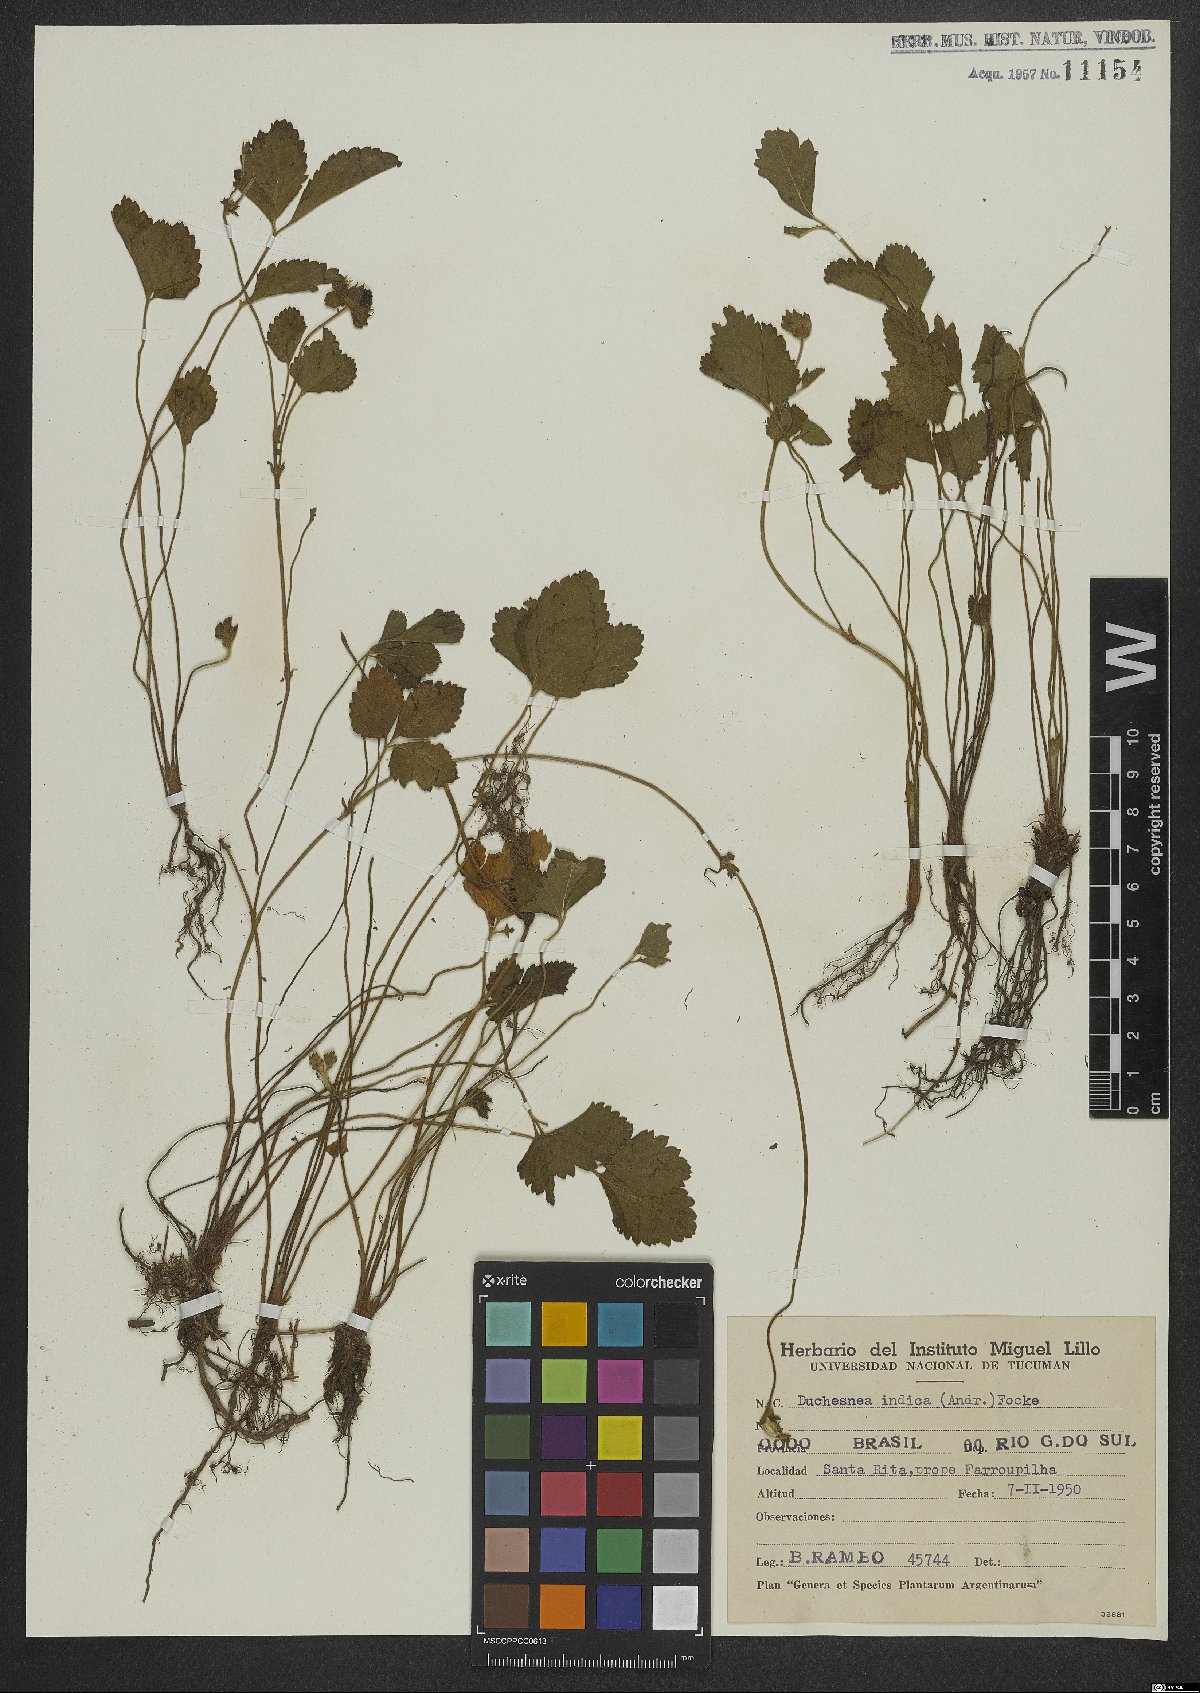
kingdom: Plantae
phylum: Tracheophyta
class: Magnoliopsida
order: Rosales
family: Rosaceae
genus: Potentilla
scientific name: Potentilla indica
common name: Yellow-flowered strawberry
